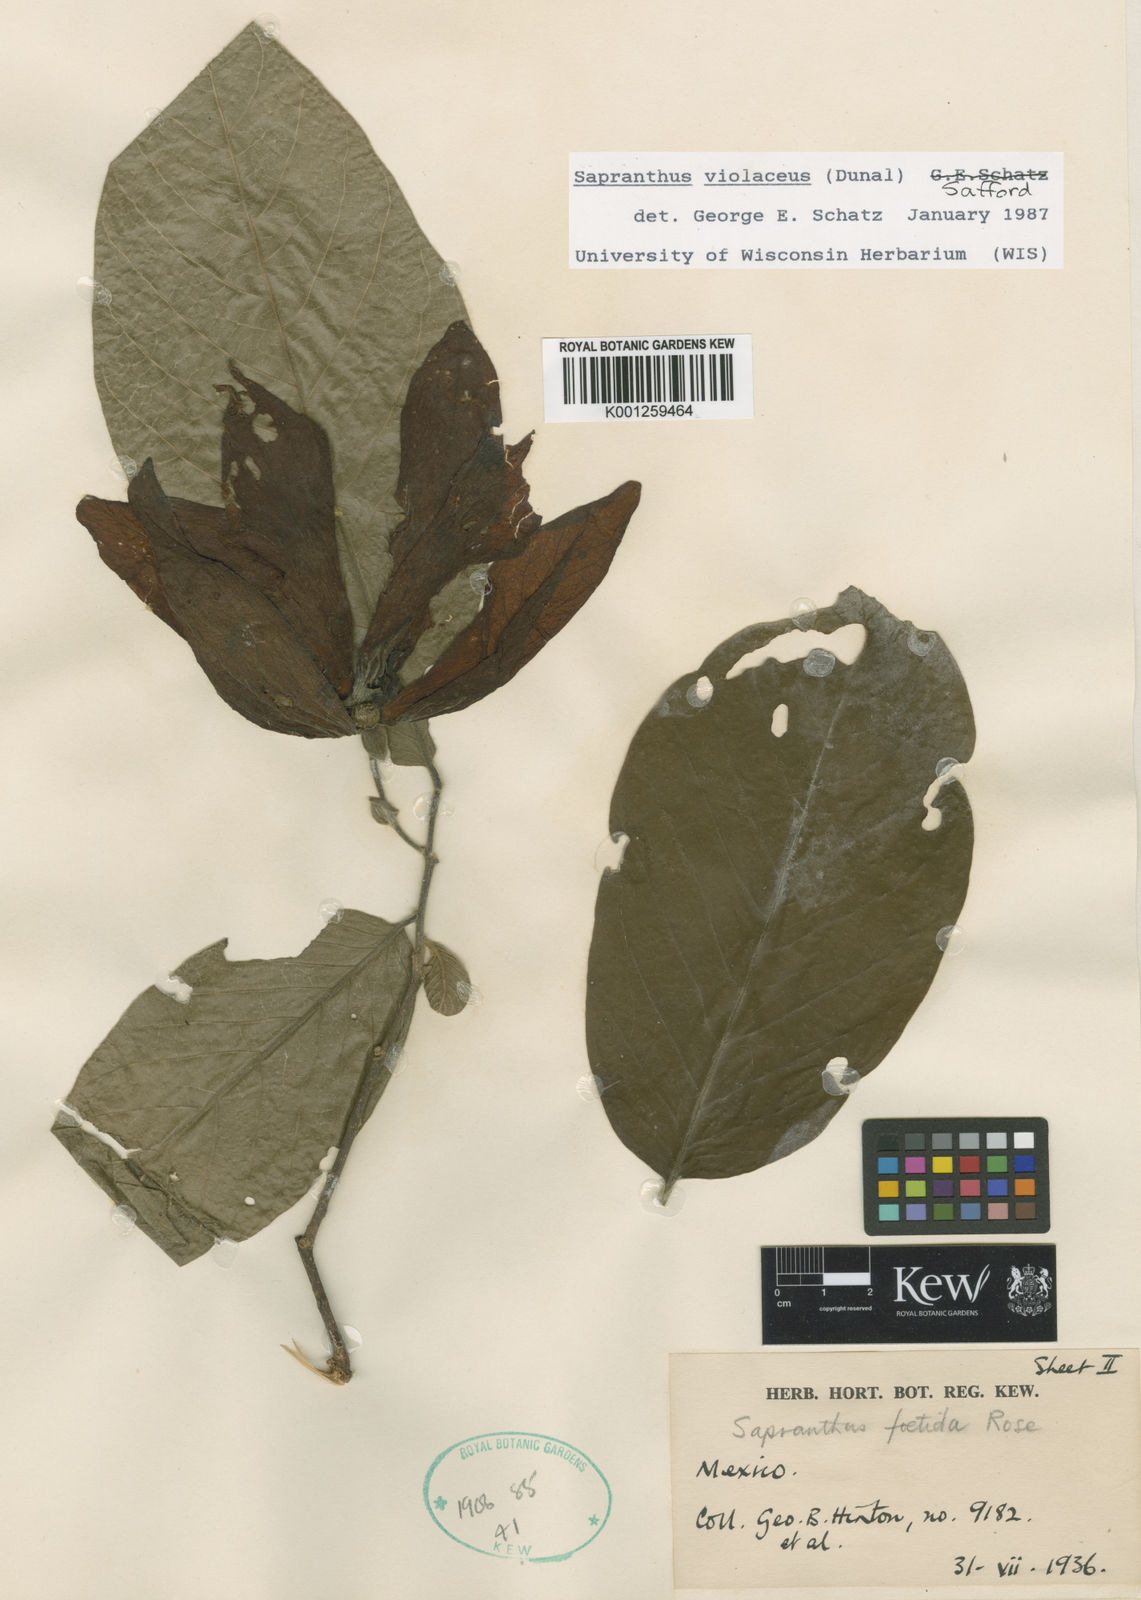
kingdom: Plantae
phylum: Tracheophyta
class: Magnoliopsida
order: Magnoliales
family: Annonaceae
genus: Sapranthus
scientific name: Sapranthus
